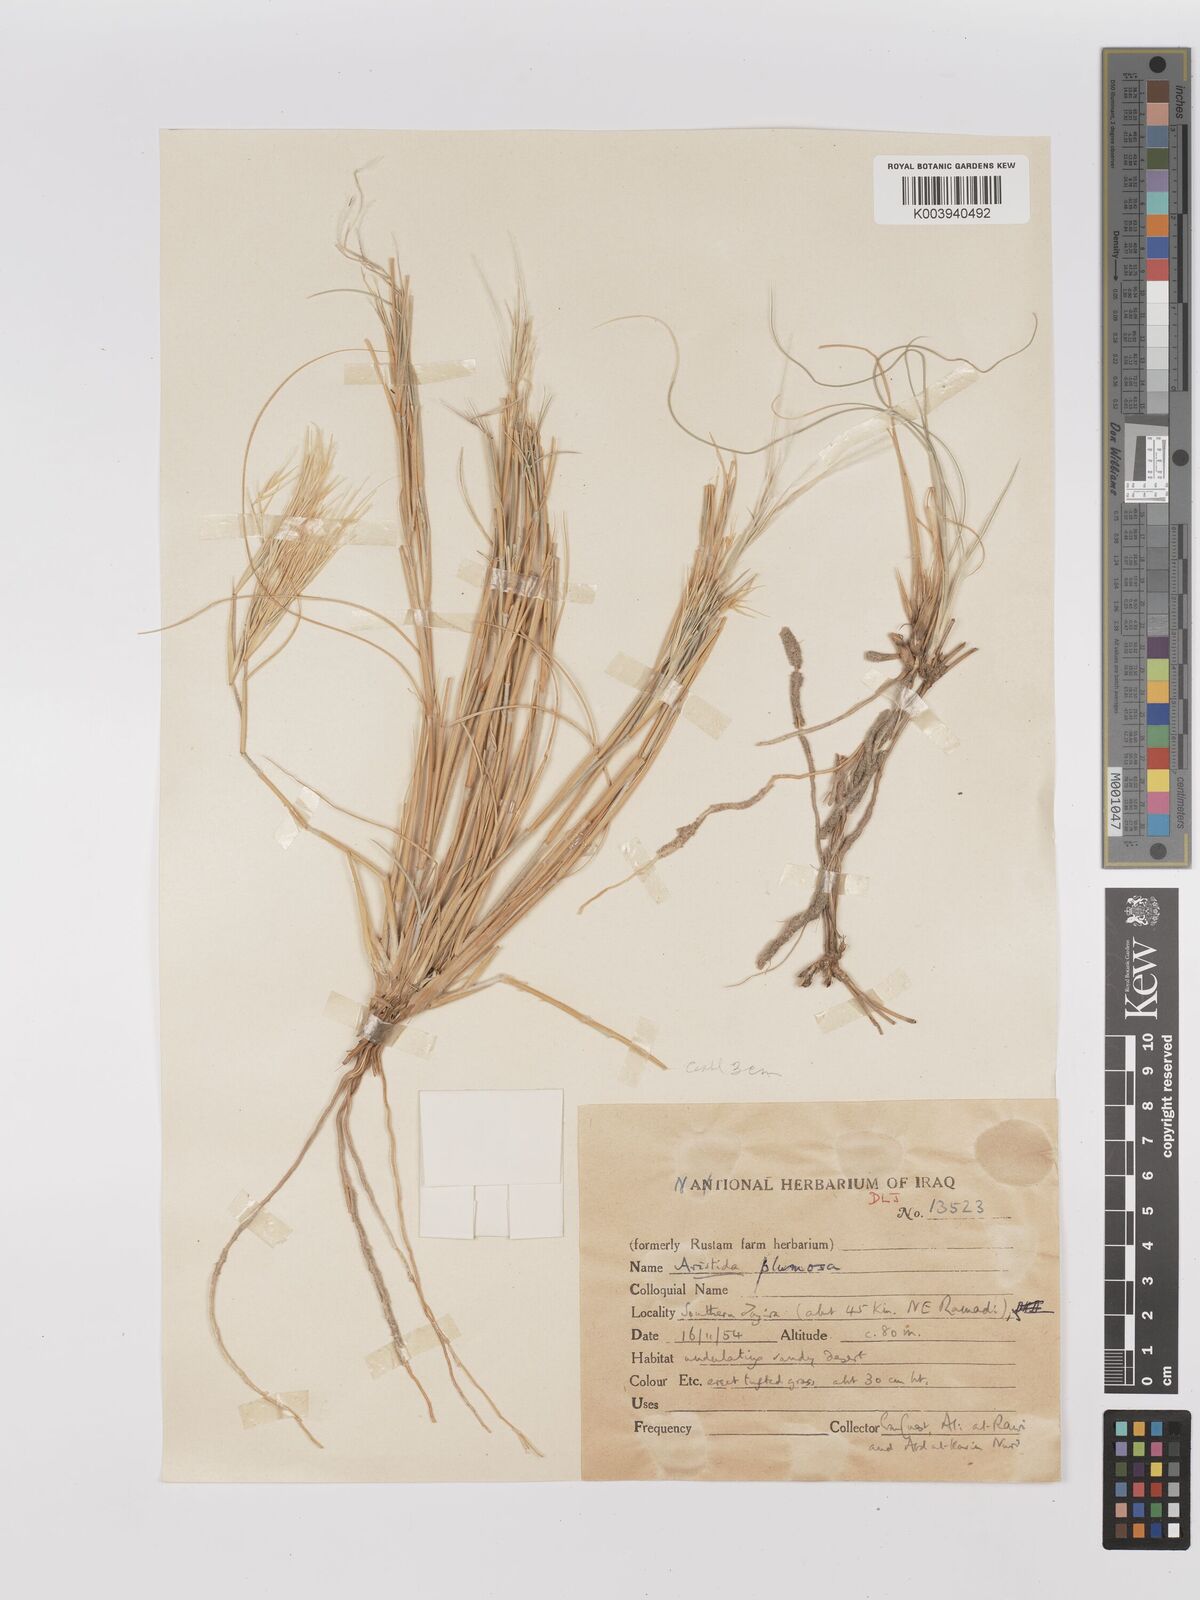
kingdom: Plantae
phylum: Tracheophyta
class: Liliopsida
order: Poales
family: Poaceae
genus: Stipagrostis
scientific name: Stipagrostis plumosa
